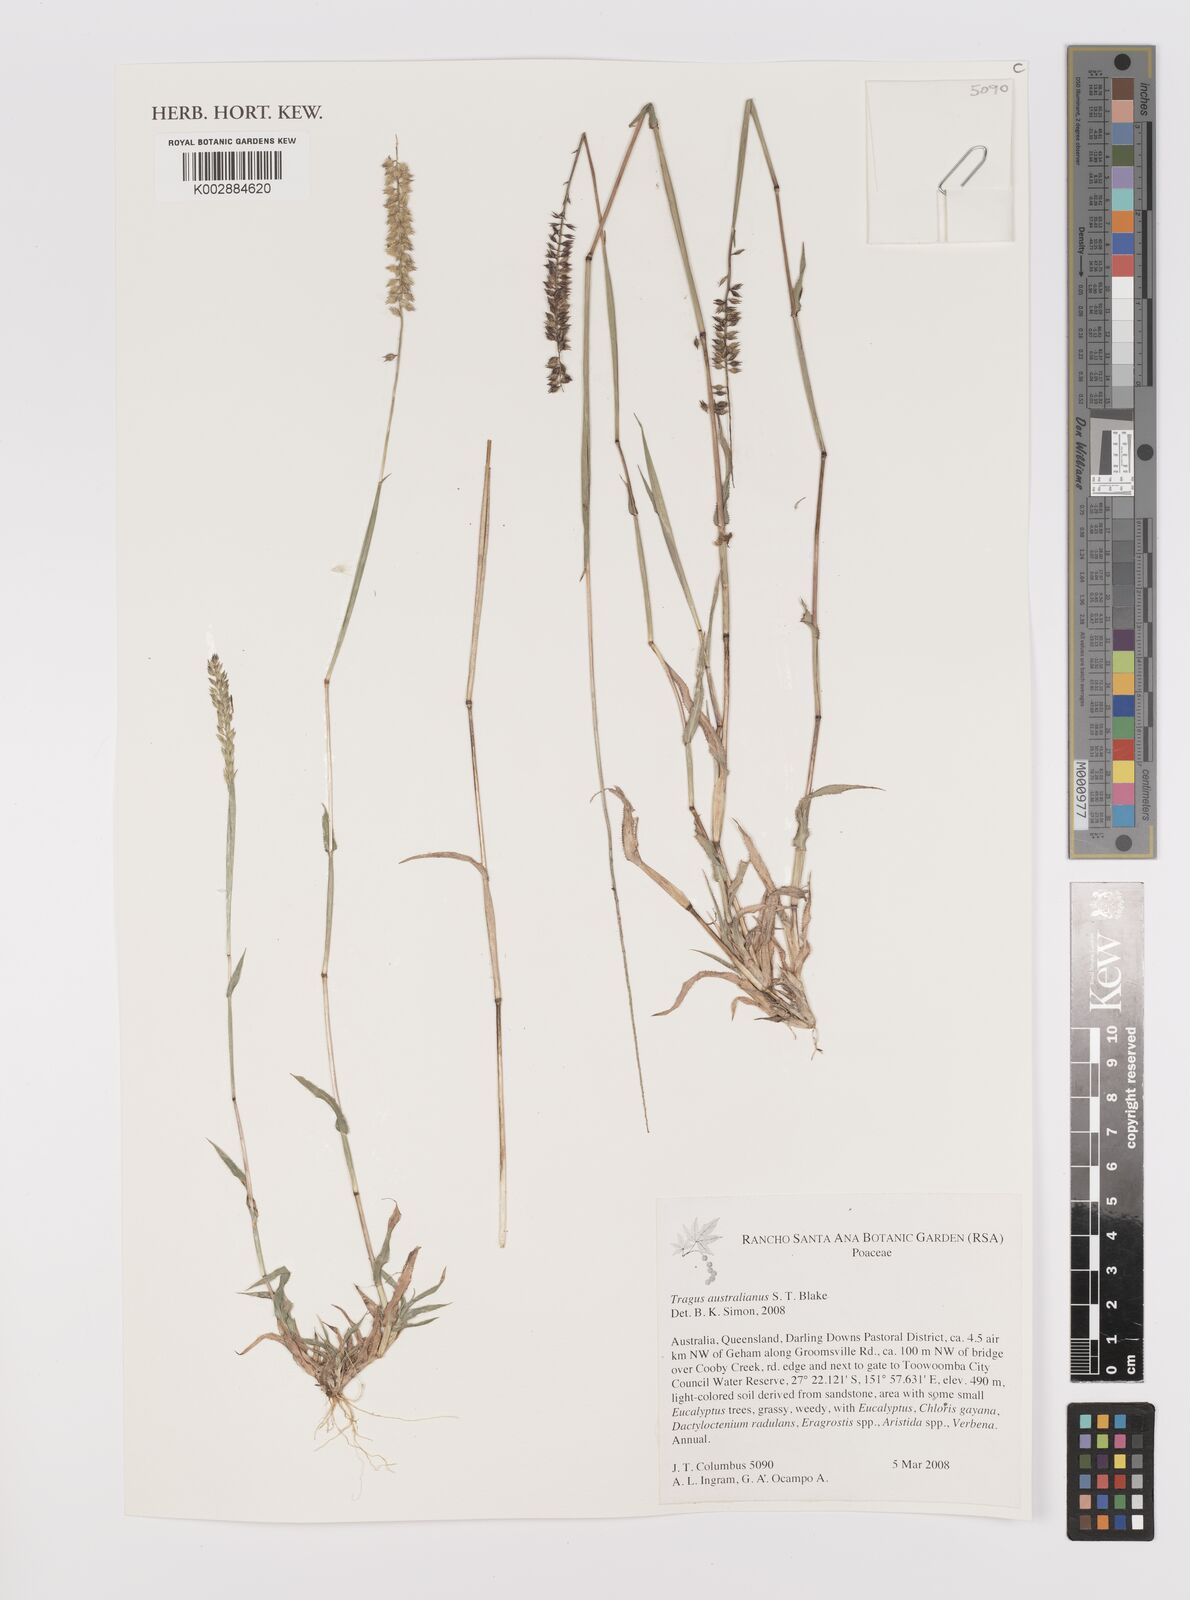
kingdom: Plantae
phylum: Tracheophyta
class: Liliopsida
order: Poales
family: Poaceae
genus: Tragus
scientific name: Tragus australianus
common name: Australian bur-grass
